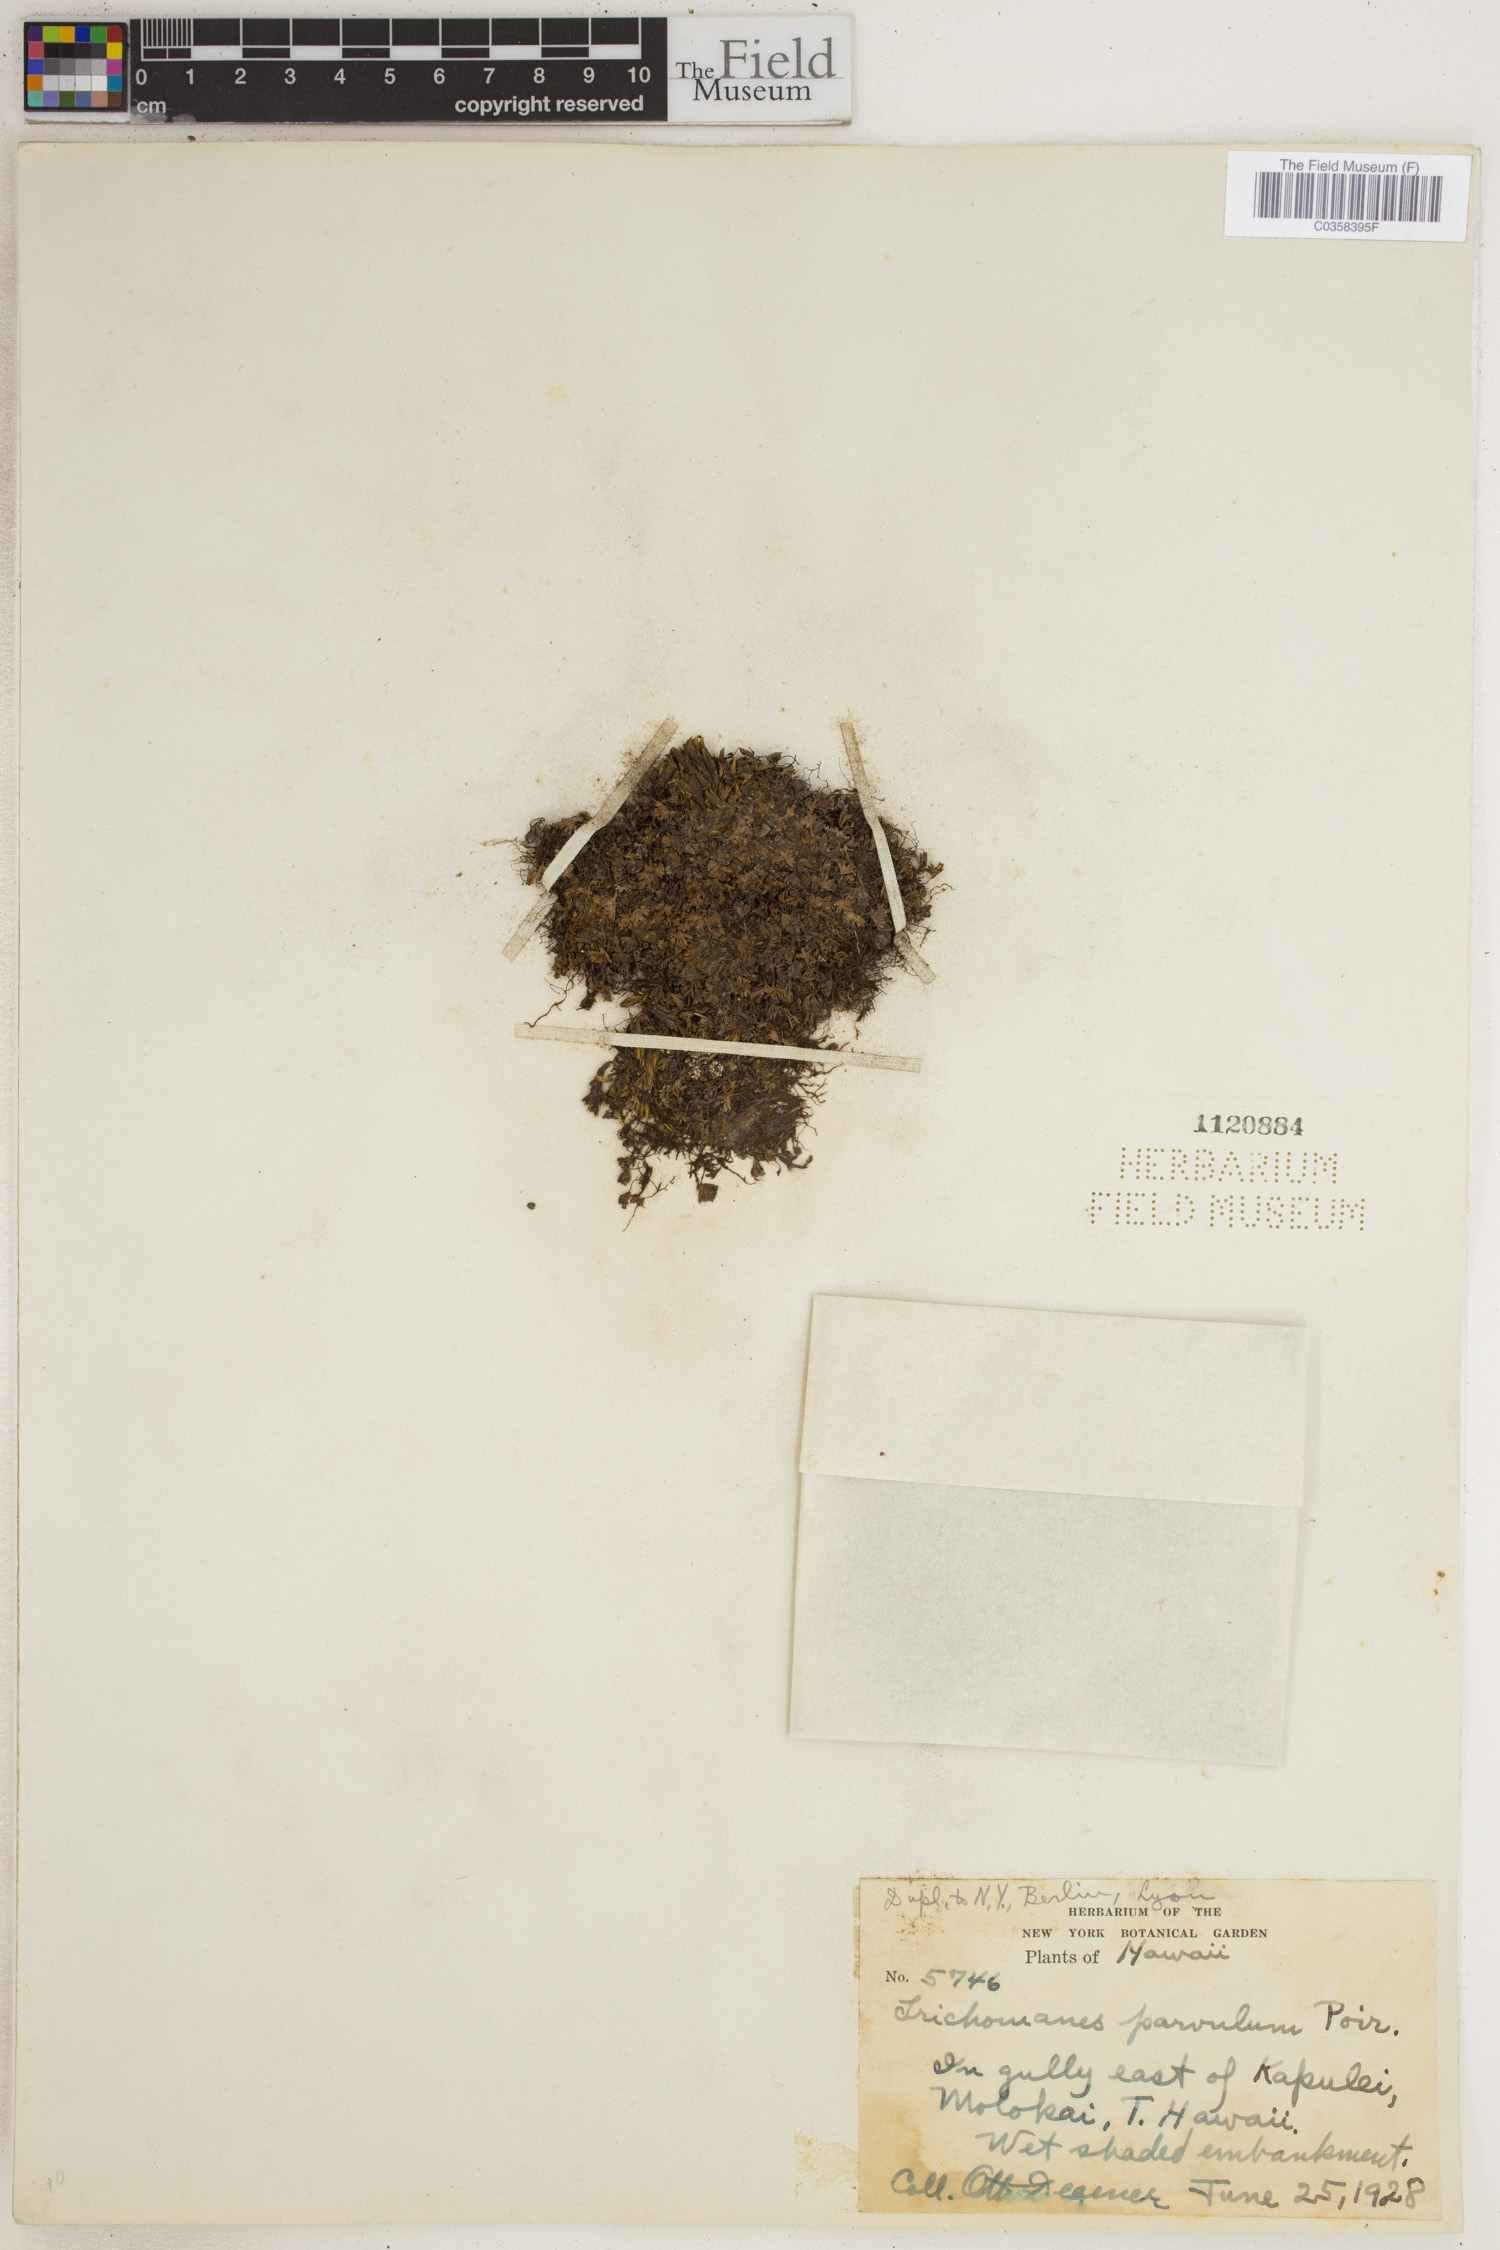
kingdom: Plantae
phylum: Tracheophyta
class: Polypodiopsida
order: Hymenophyllales
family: Hymenophyllaceae
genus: Crepidomanes
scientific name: Crepidomanes parvulum
